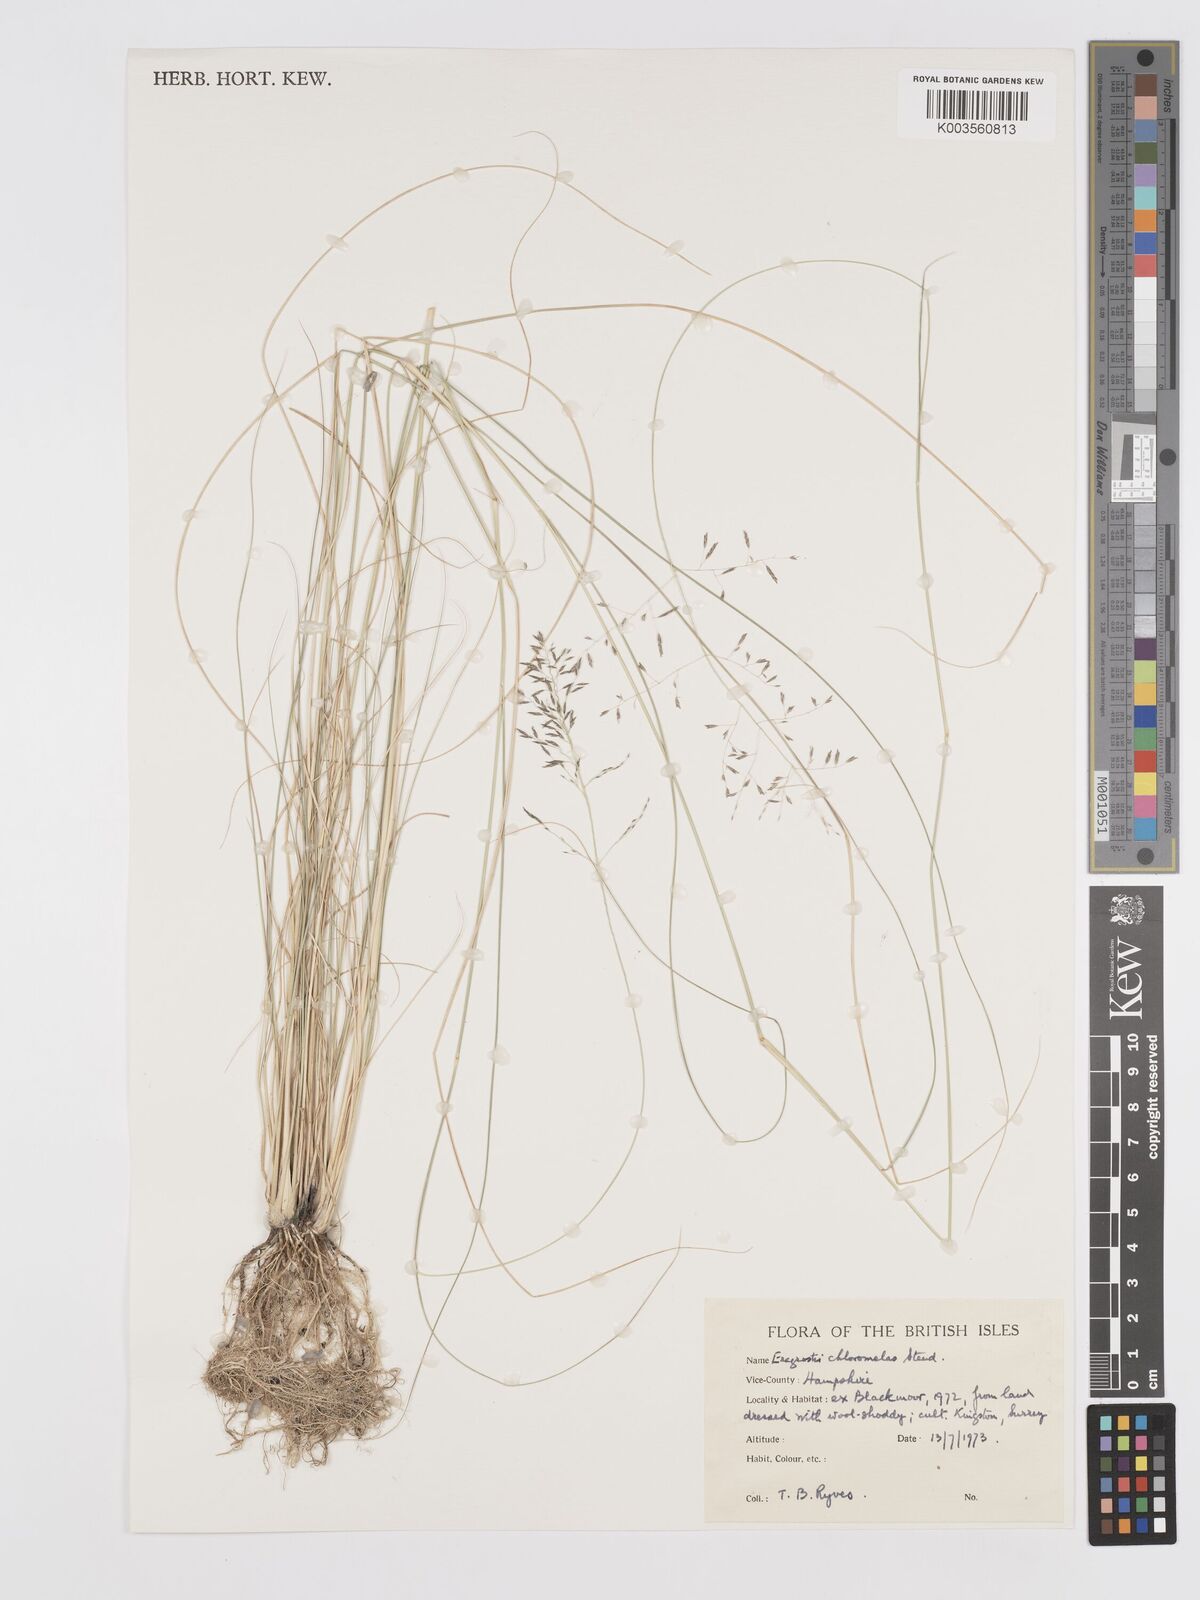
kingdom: Plantae
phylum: Tracheophyta
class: Liliopsida
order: Poales
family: Poaceae
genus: Eragrostis
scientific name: Eragrostis curvula
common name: African love-grass
